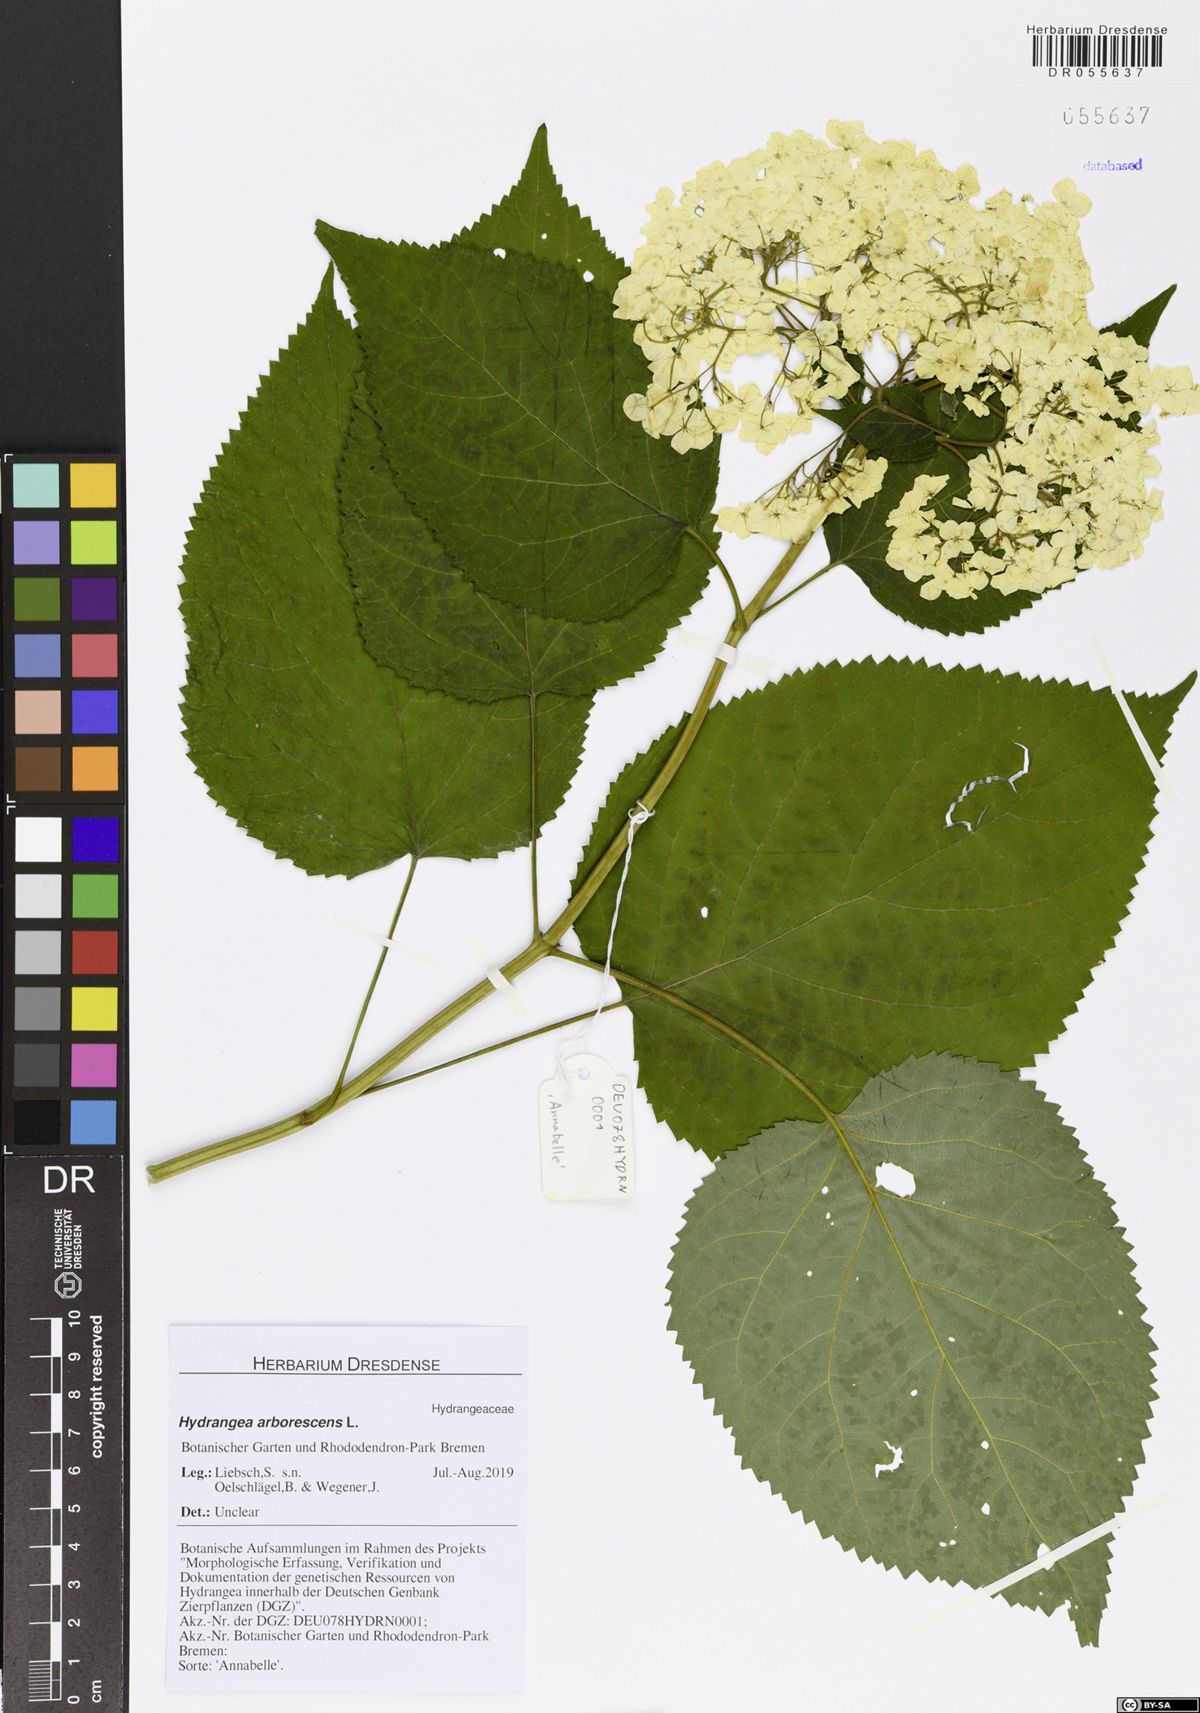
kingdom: Plantae
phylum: Tracheophyta
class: Magnoliopsida
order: Cornales
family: Hydrangeaceae
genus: Hydrangea
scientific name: Hydrangea arborescens
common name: Sevenbark
